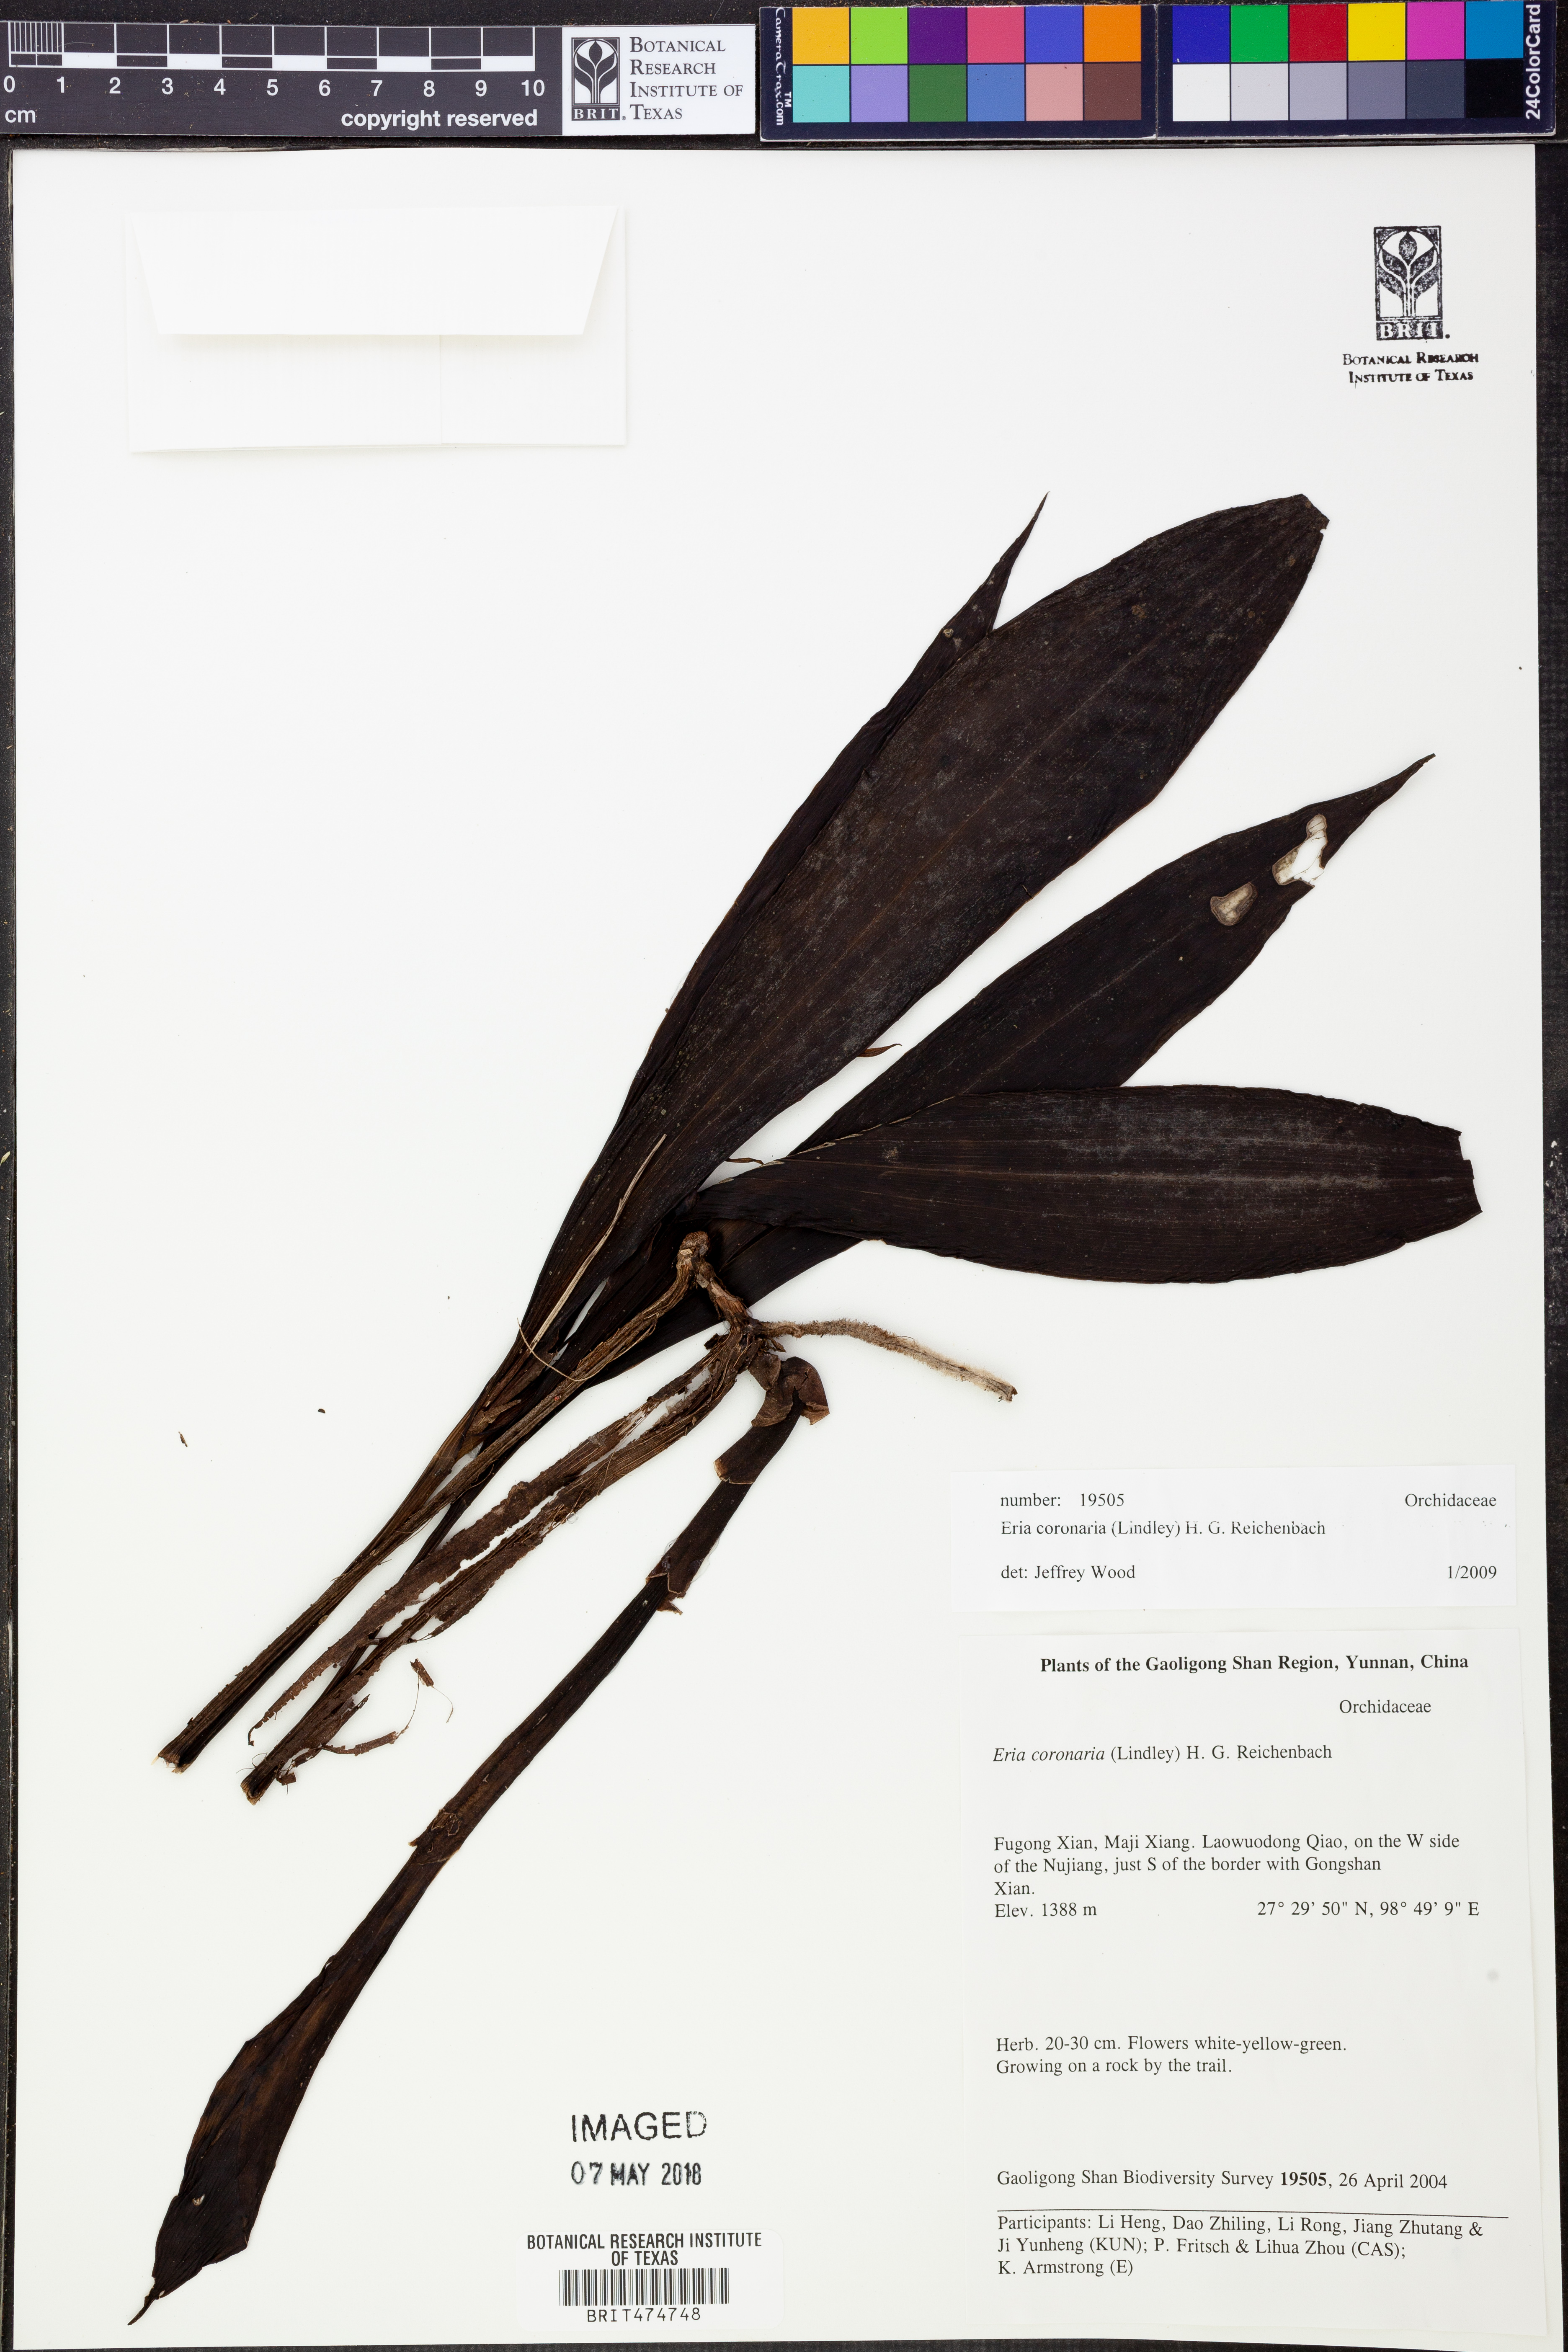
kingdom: Plantae
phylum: Tracheophyta
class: Liliopsida
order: Asparagales
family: Orchidaceae
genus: Eria
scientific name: Eria coronaria
